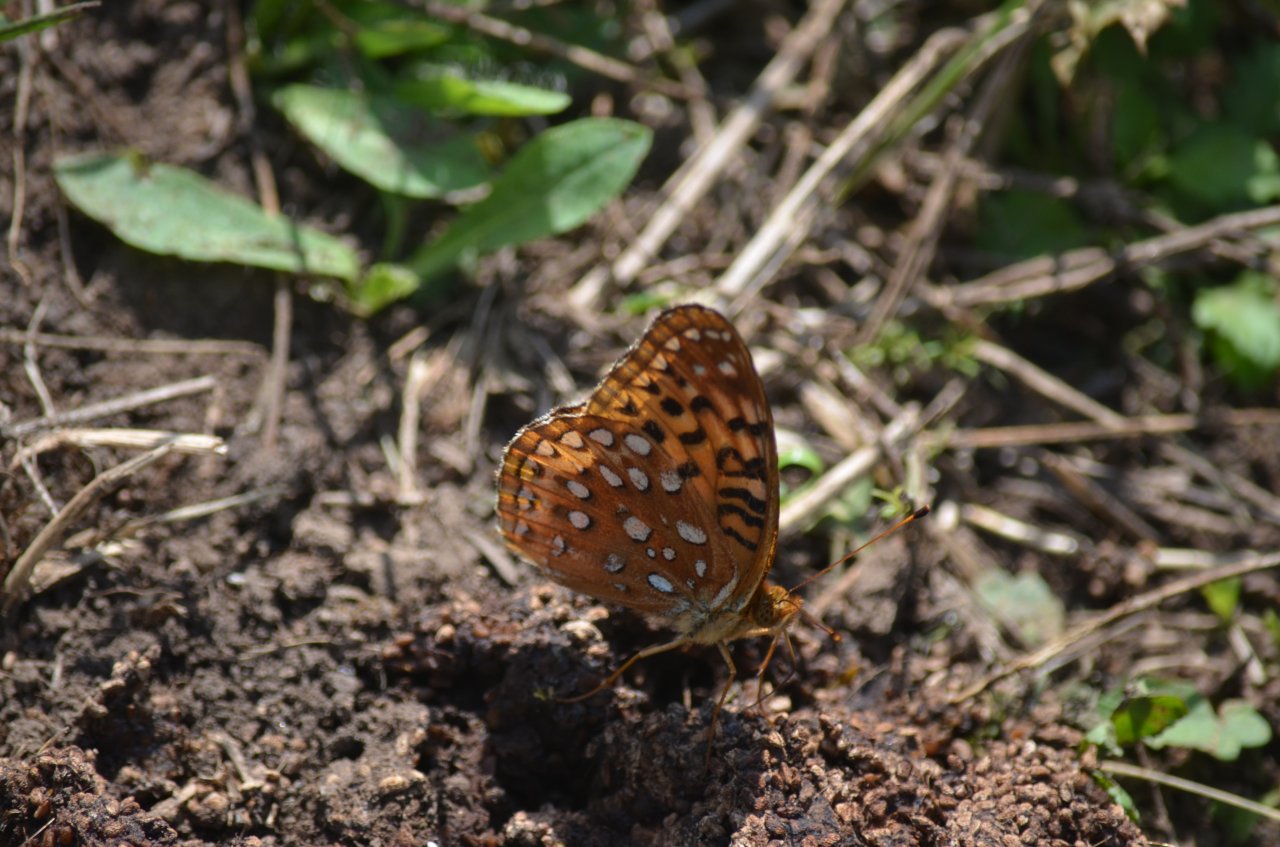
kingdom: Animalia
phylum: Arthropoda
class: Insecta
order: Lepidoptera
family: Nymphalidae
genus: Speyeria
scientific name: Speyeria aphrodite
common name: Aphrodite Fritillary
